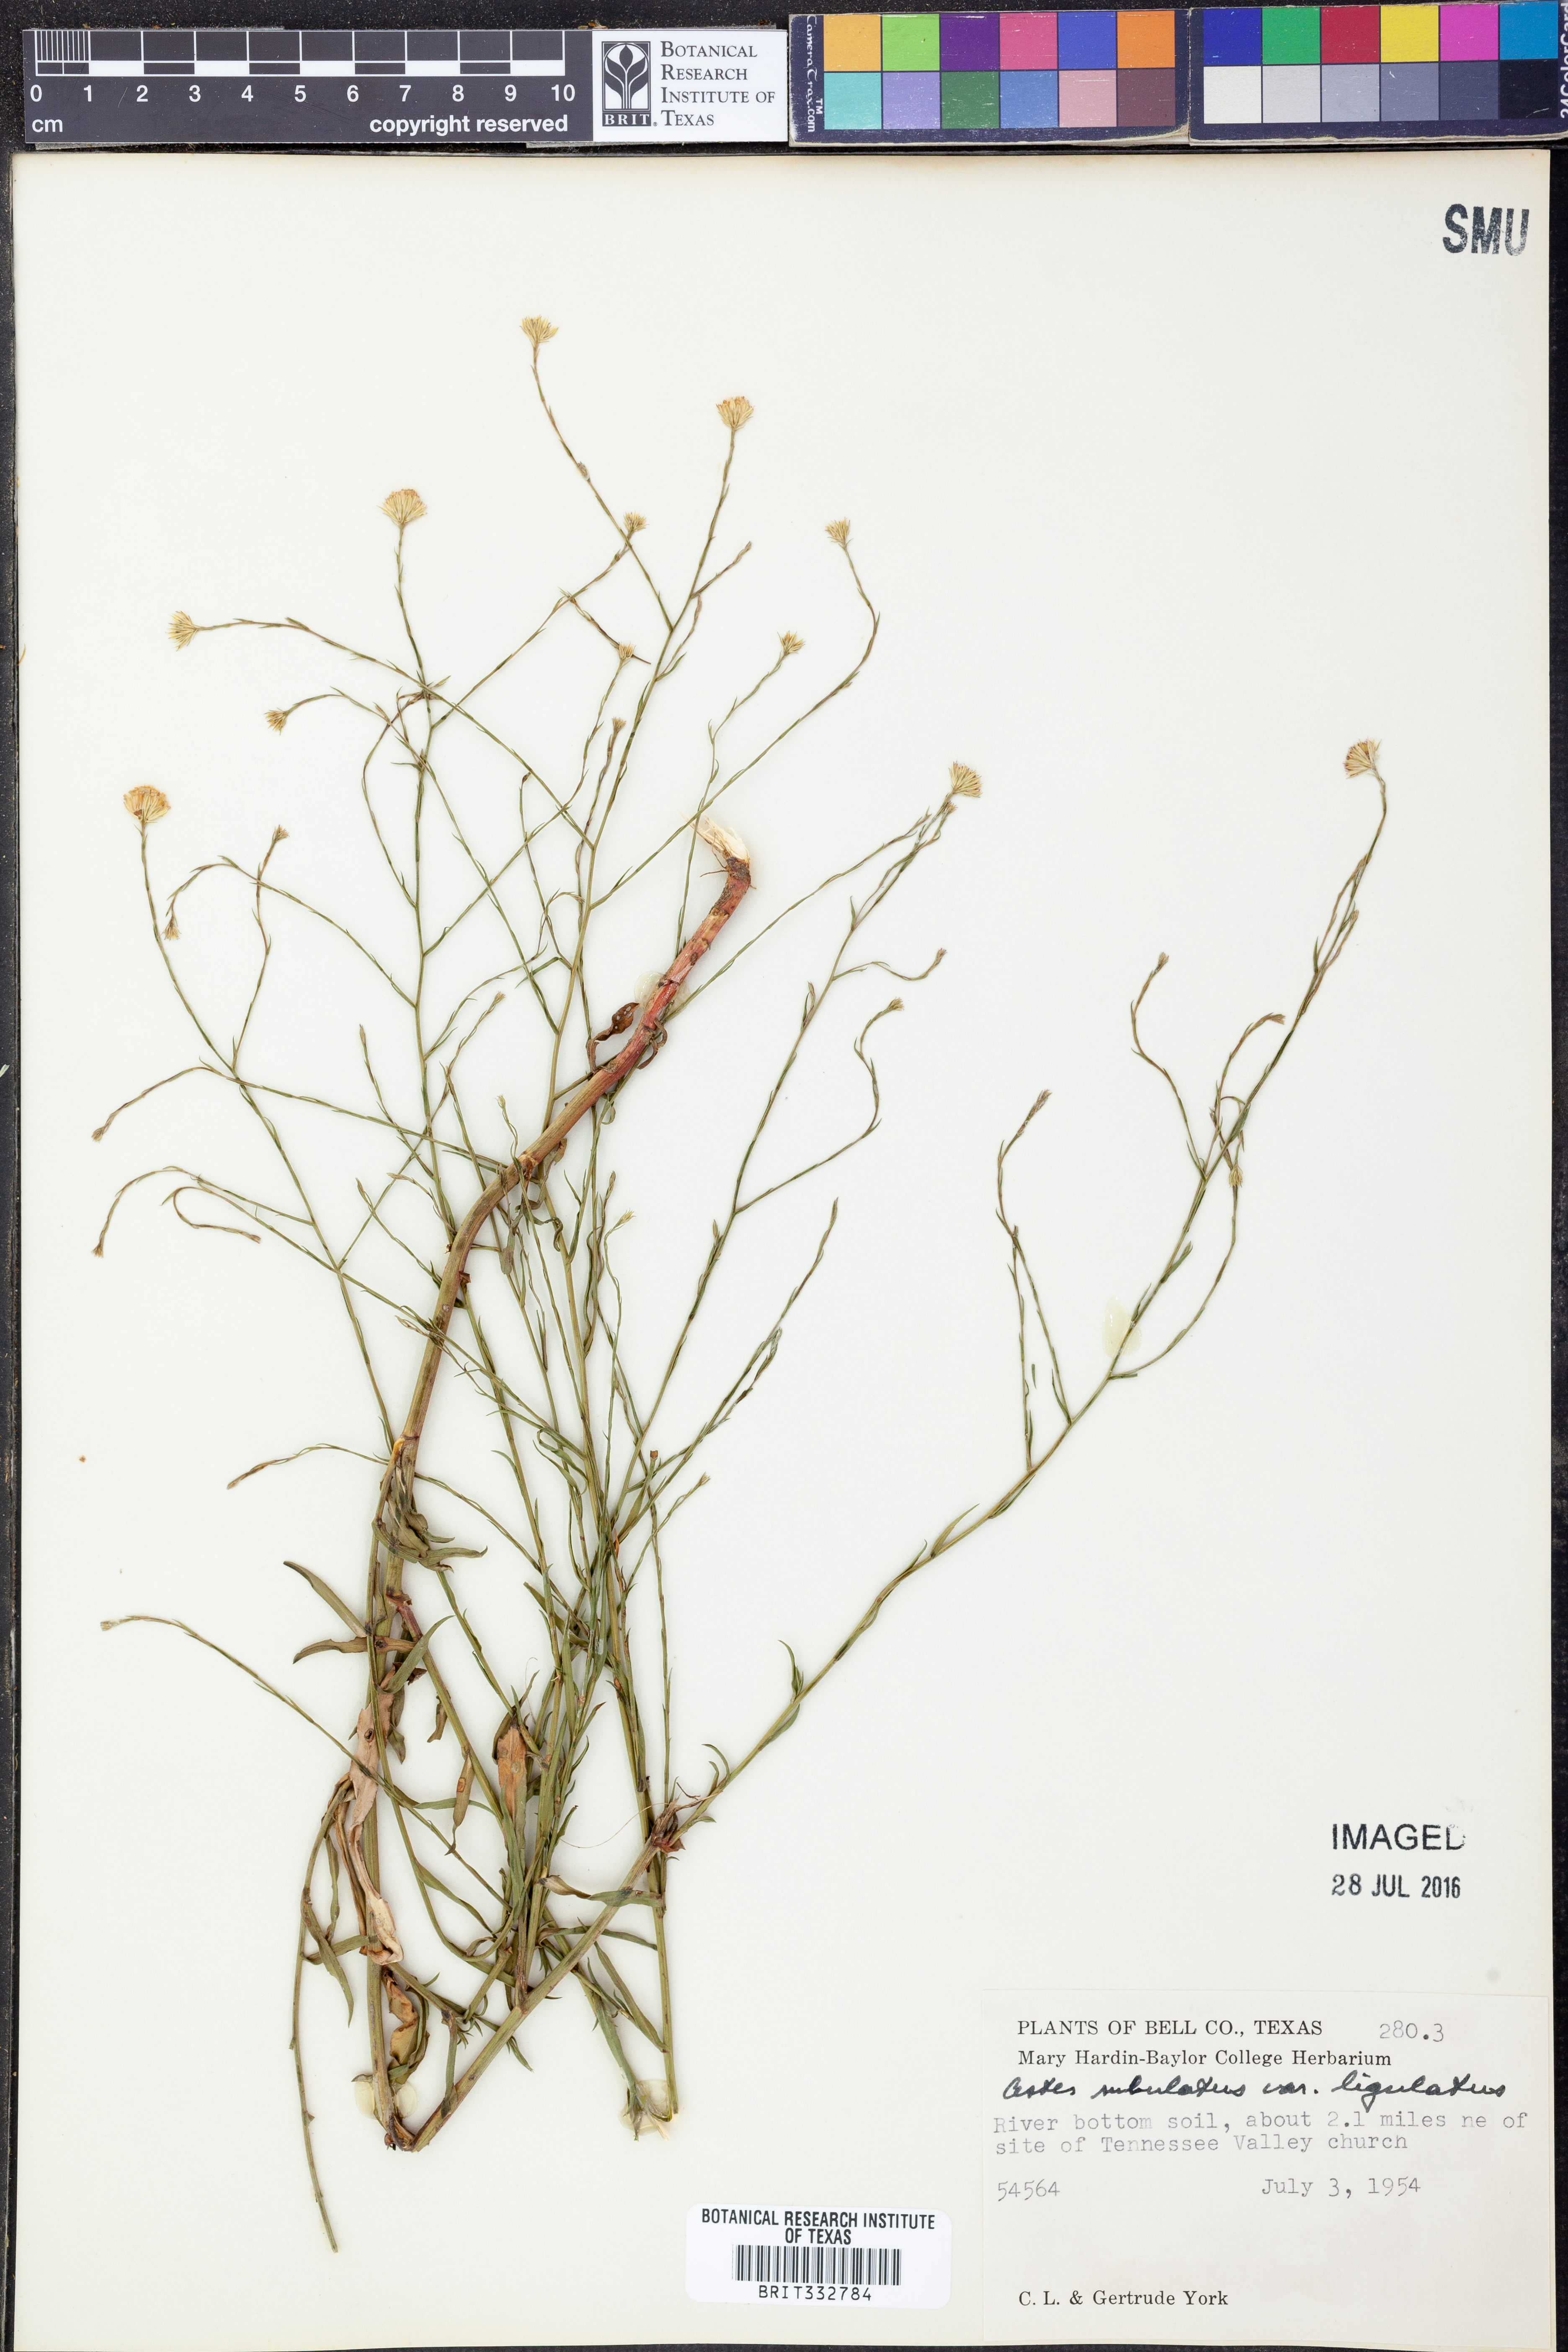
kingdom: Plantae
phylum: Tracheophyta
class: Magnoliopsida
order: Asterales
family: Asteraceae
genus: Symphyotrichum
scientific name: Symphyotrichum divaricatum
